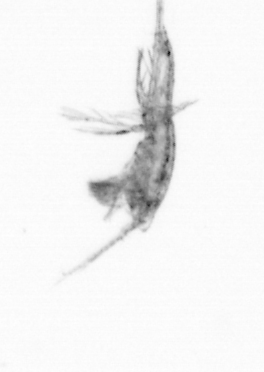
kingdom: Animalia
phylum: Arthropoda
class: Copepoda
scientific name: Copepoda
